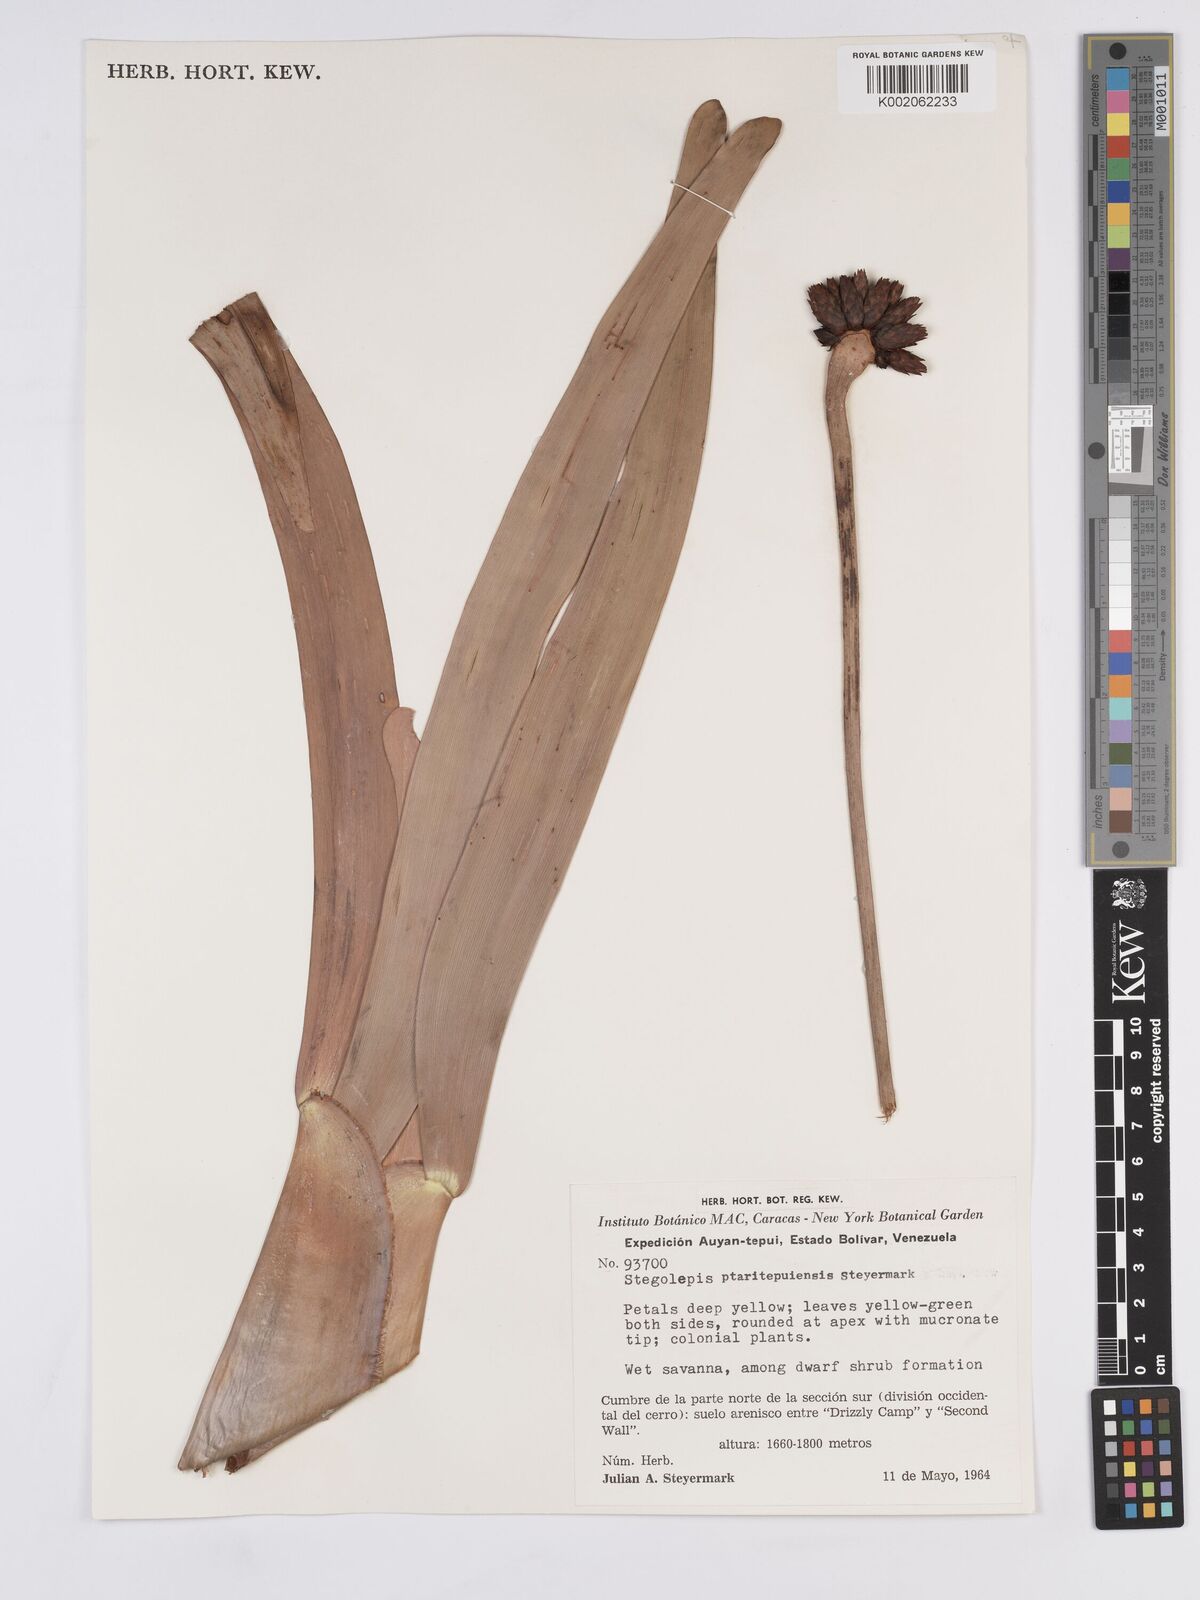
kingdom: Plantae
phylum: Tracheophyta
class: Liliopsida
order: Poales
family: Rapateaceae
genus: Stegolepis
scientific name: Stegolepis ptaritepuiensis
